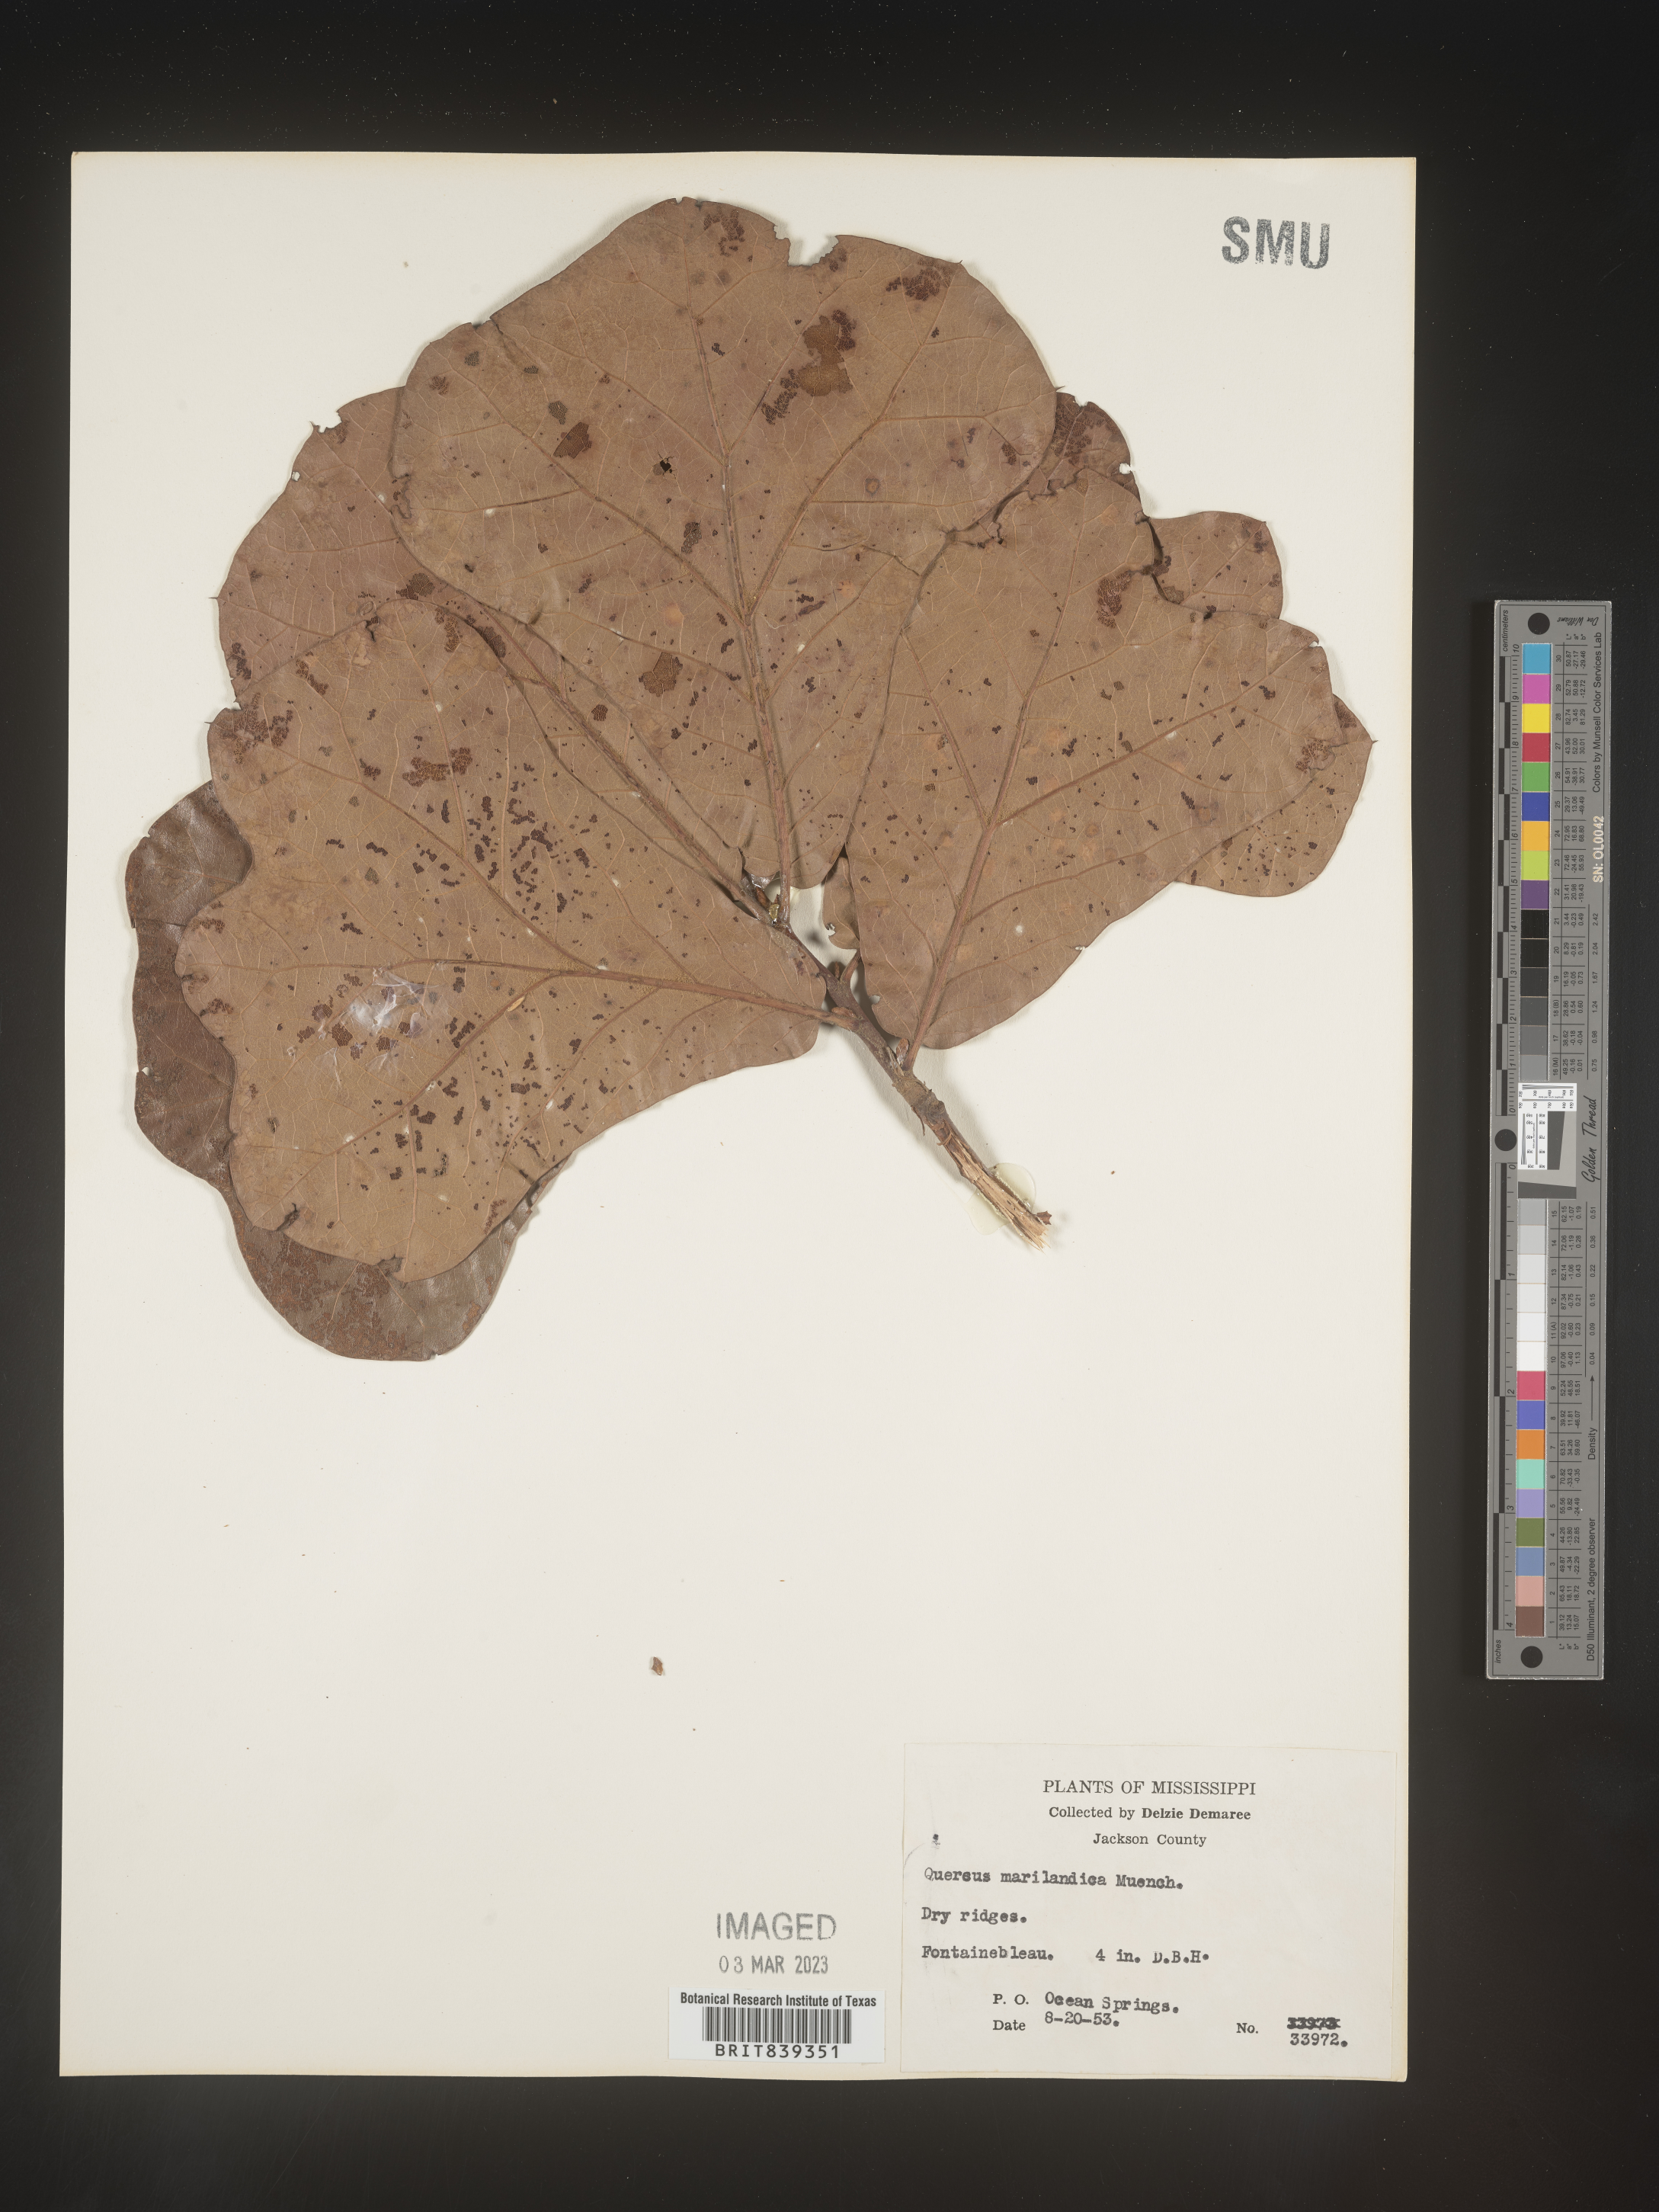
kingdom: Plantae
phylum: Tracheophyta
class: Magnoliopsida
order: Fagales
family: Fagaceae
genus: Quercus
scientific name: Quercus marilandica
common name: Blackjack oak
